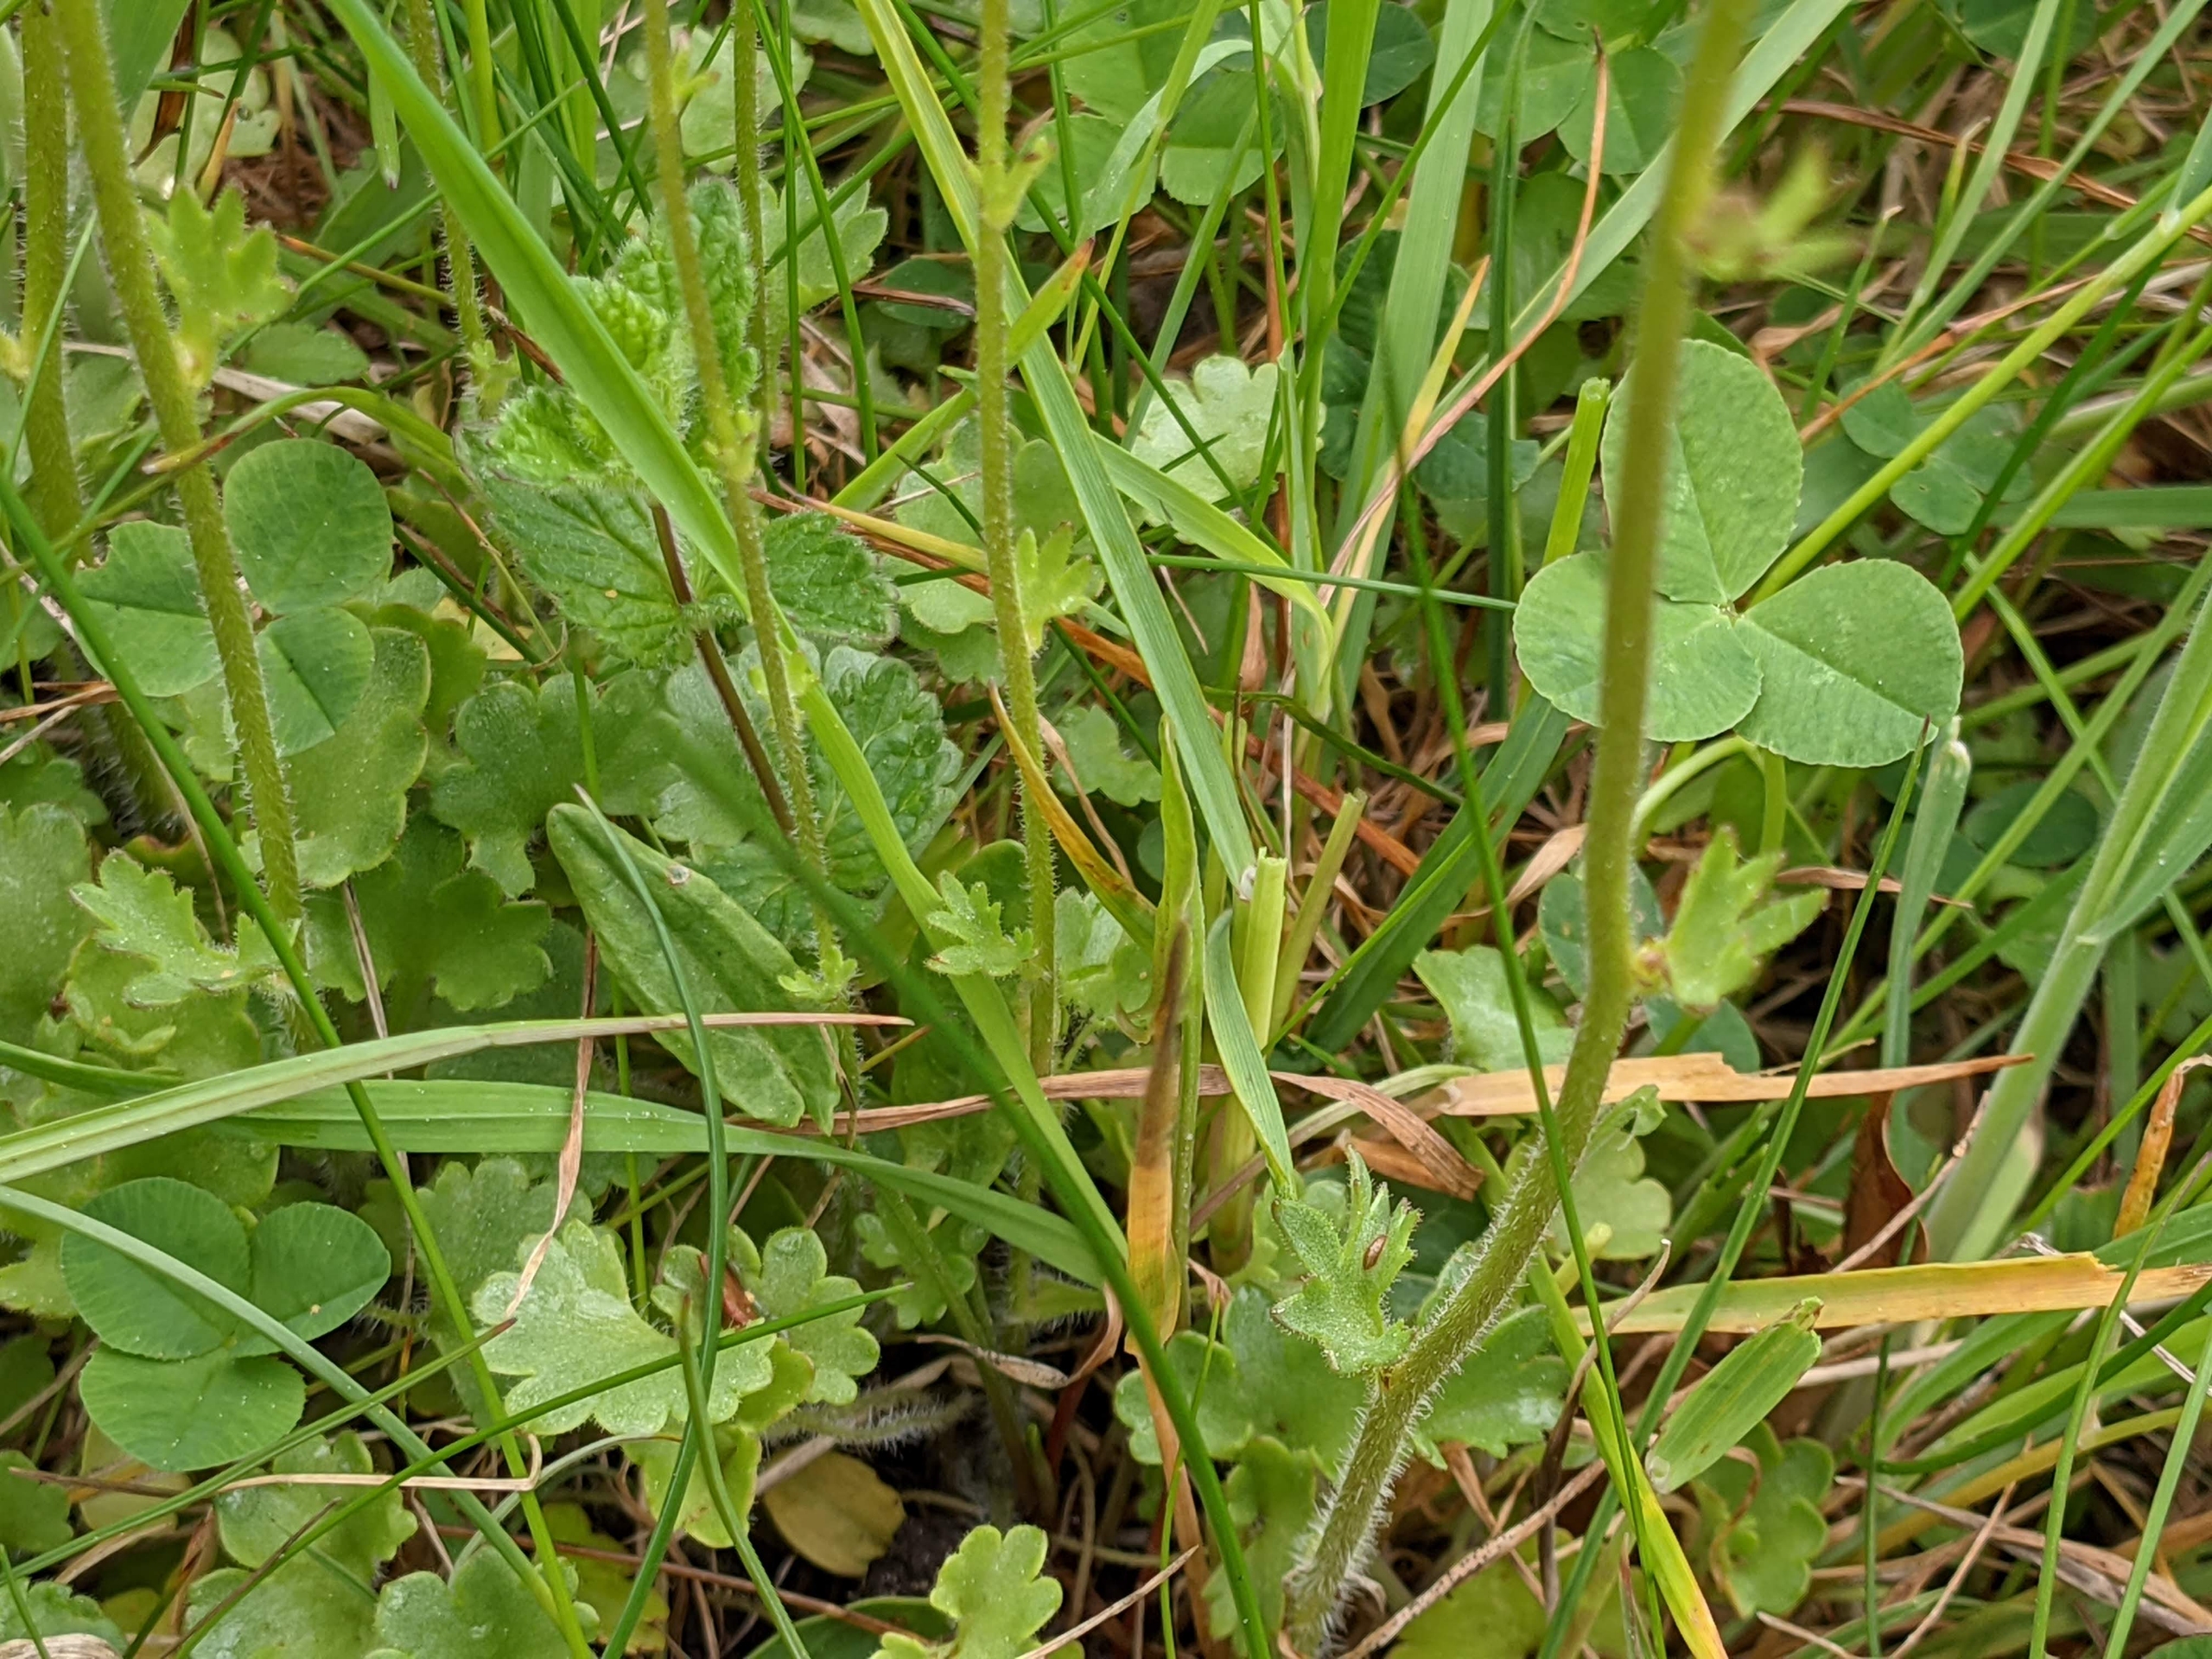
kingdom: Plantae
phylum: Tracheophyta
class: Magnoliopsida
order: Saxifragales
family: Saxifragaceae
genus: Saxifraga
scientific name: Saxifraga granulata
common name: Kornet stenbræk
